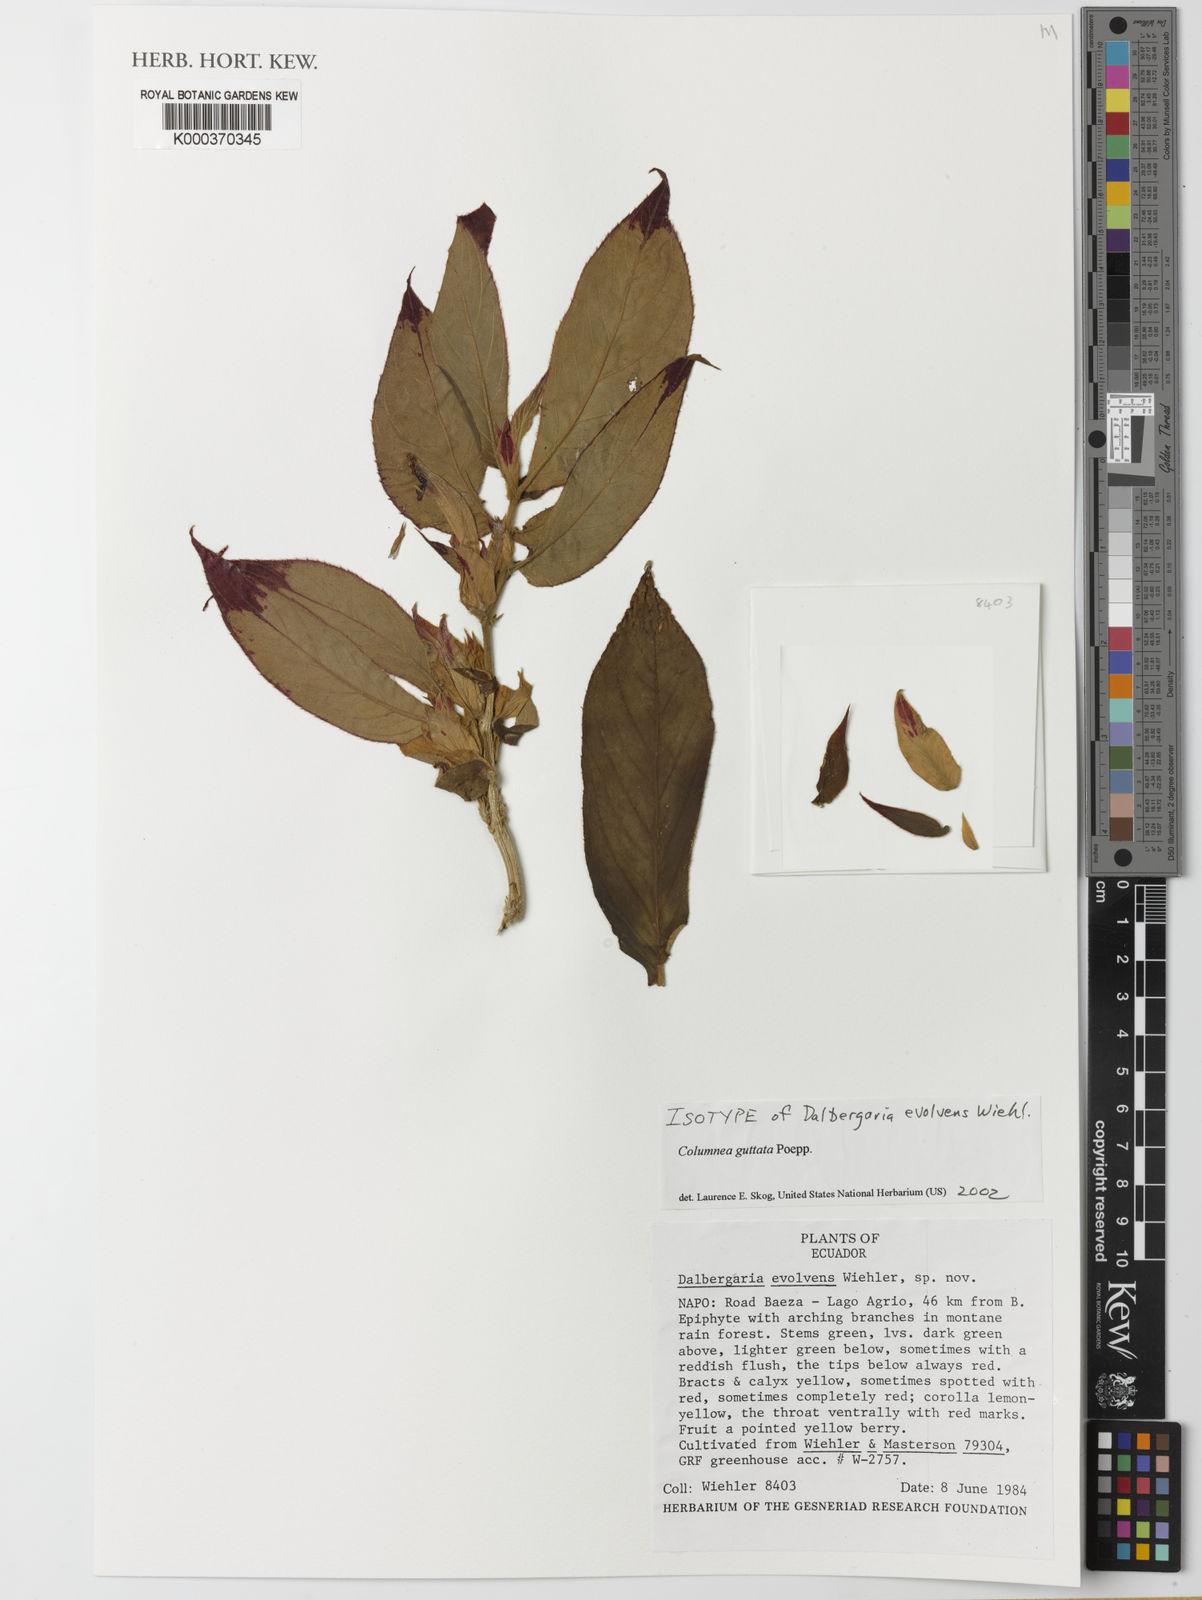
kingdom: Plantae
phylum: Tracheophyta
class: Magnoliopsida
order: Lamiales
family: Gesneriaceae
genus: Columnea
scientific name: Columnea guttata
